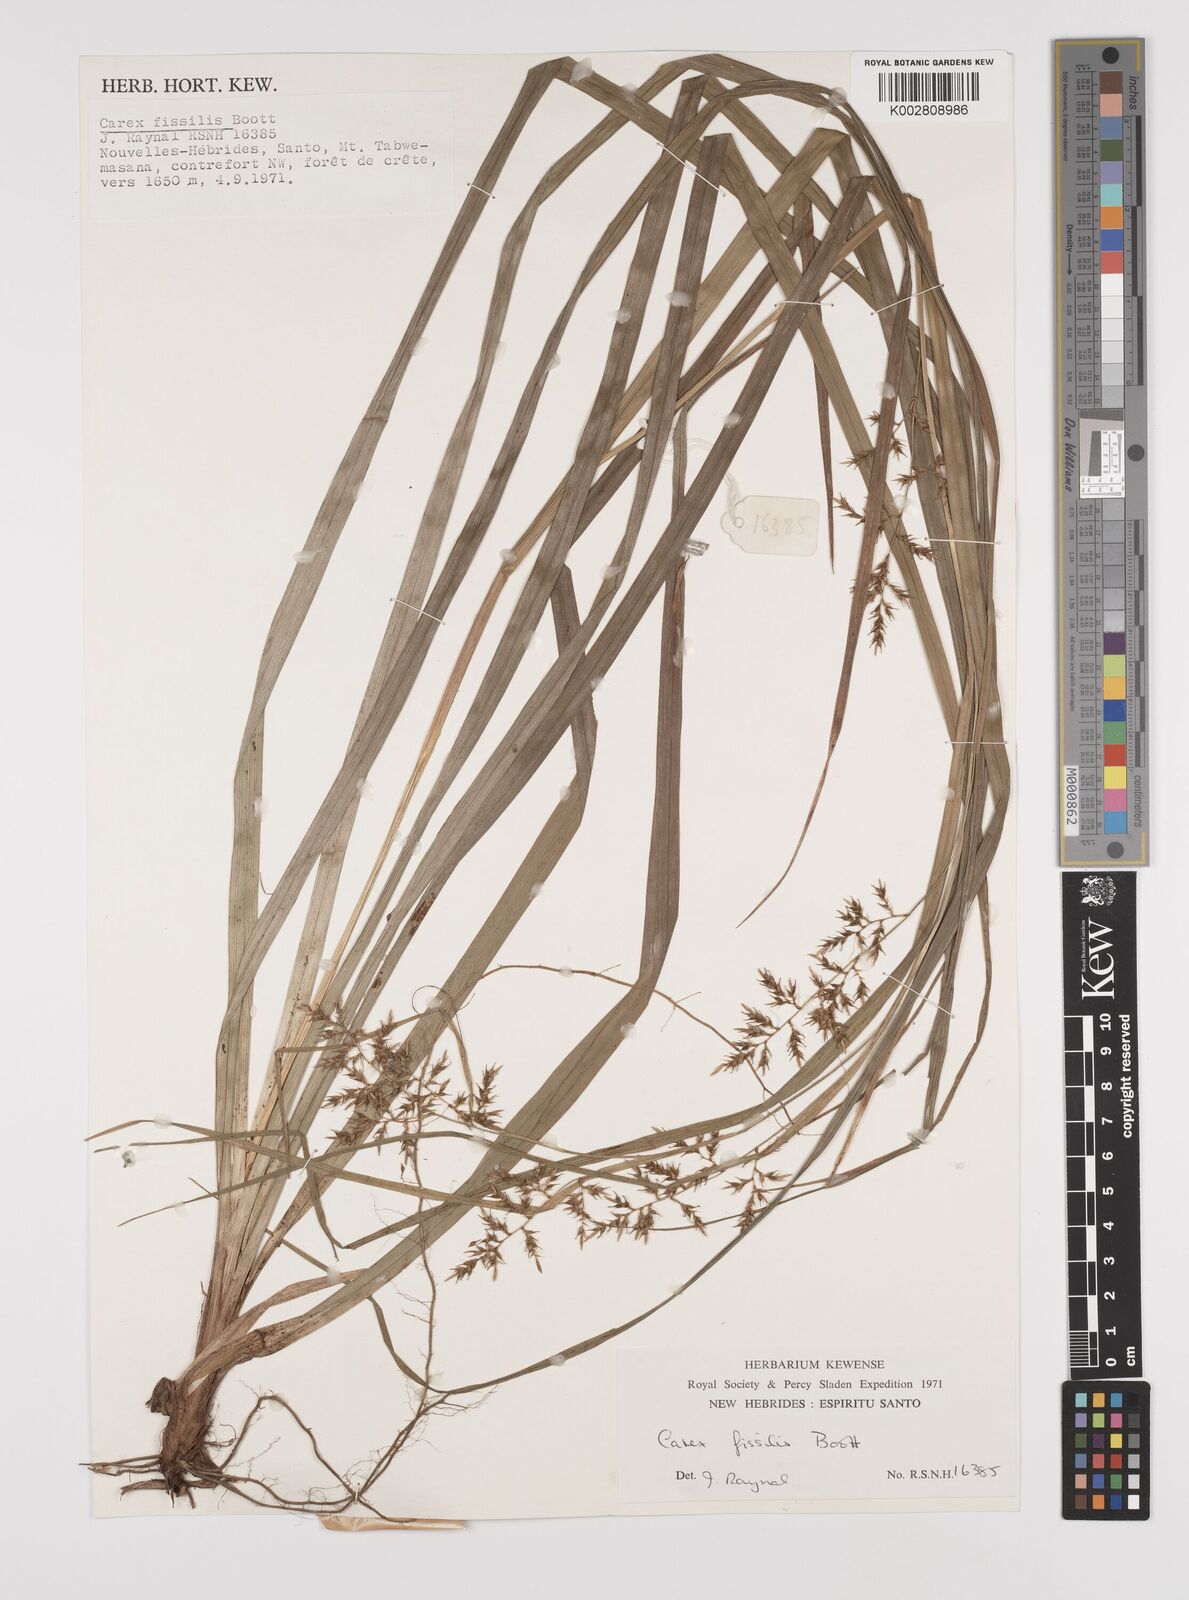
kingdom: Plantae
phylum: Tracheophyta
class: Liliopsida
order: Poales
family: Cyperaceae
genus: Carex
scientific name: Carex indica
